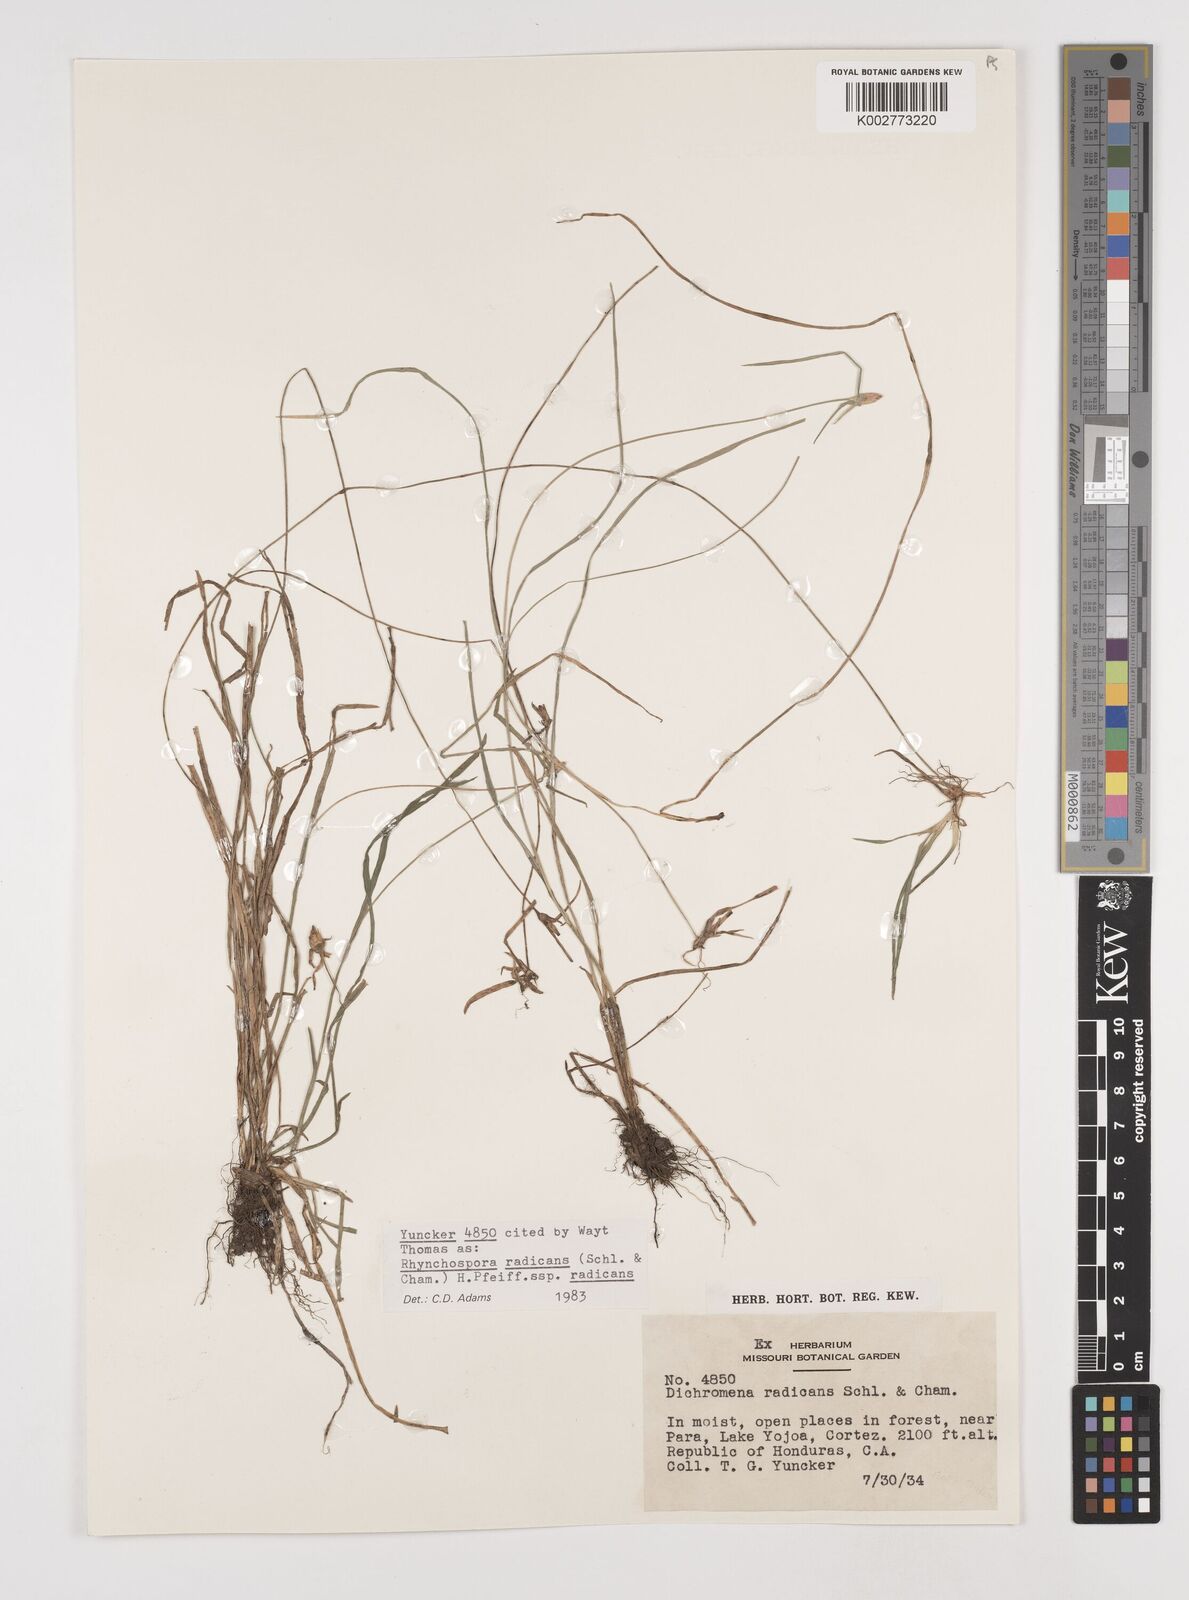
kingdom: Plantae
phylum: Tracheophyta
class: Liliopsida
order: Poales
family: Cyperaceae
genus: Rhynchospora
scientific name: Rhynchospora radicans
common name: Tropical whitetop
